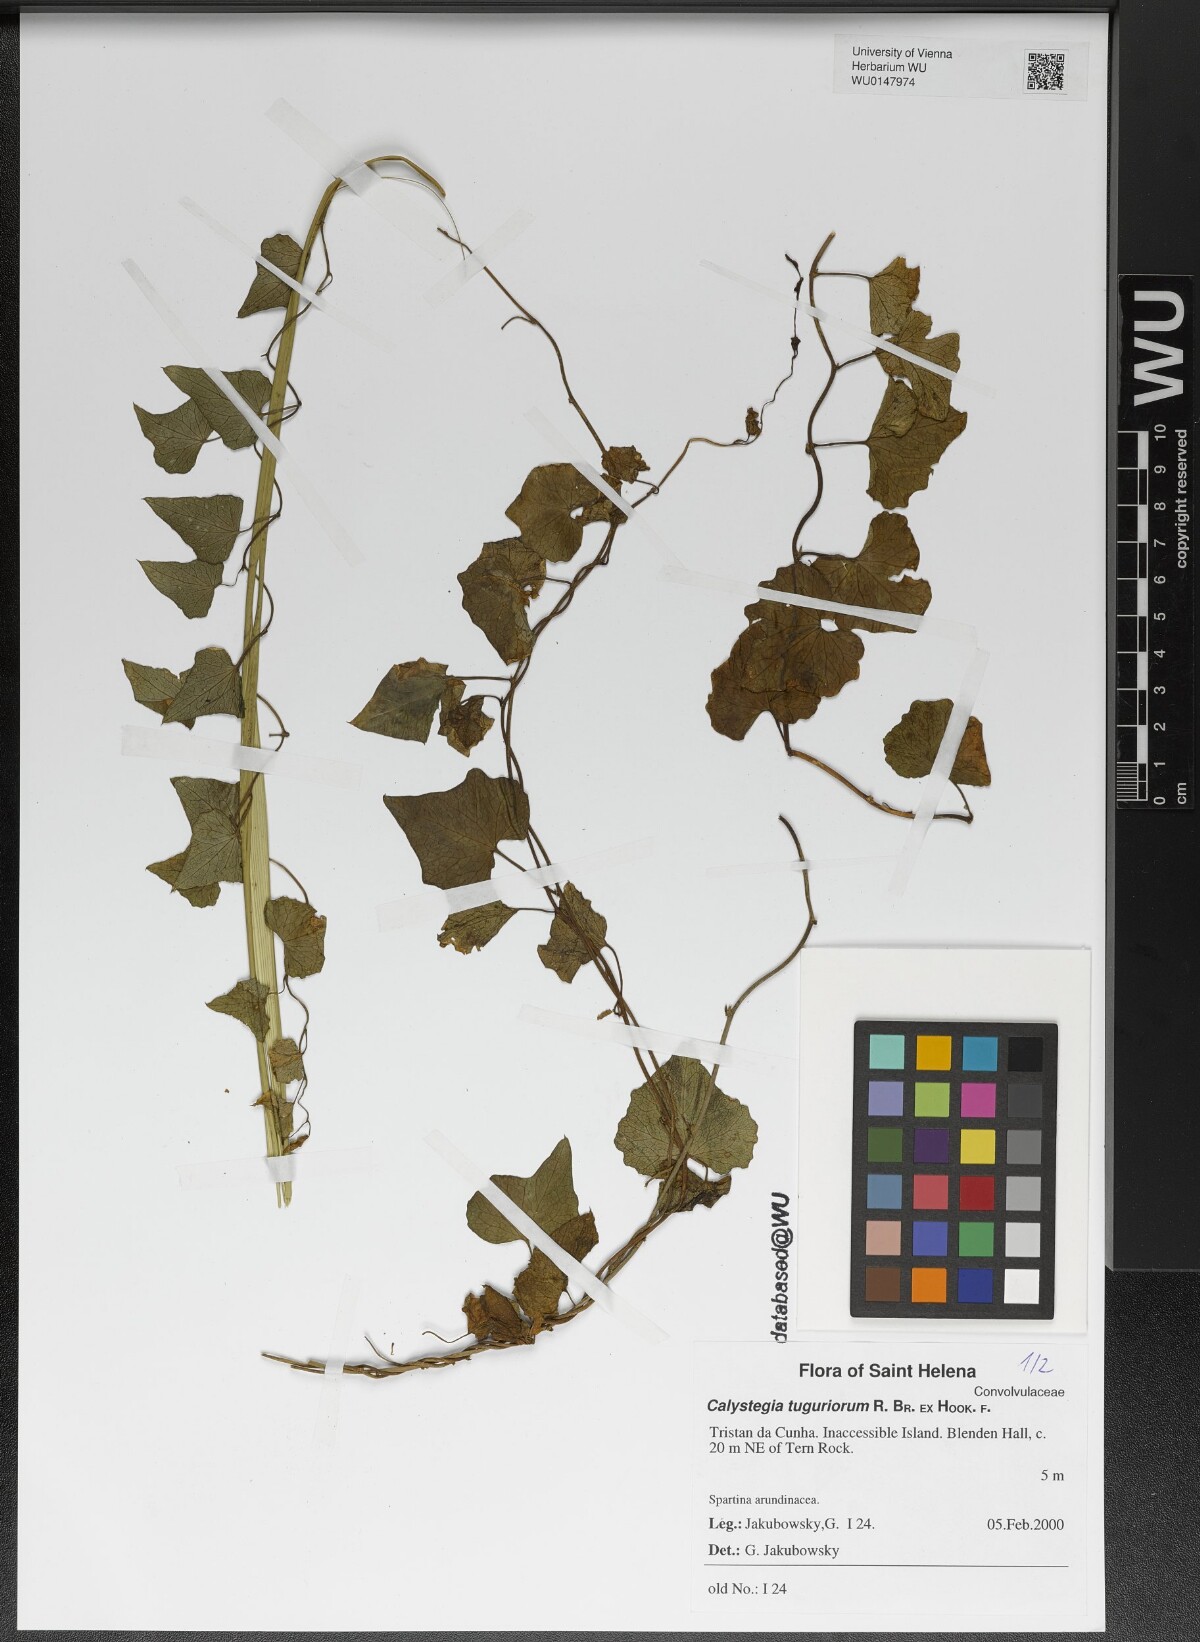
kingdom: Plantae
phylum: Tracheophyta
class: Magnoliopsida
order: Solanales
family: Convolvulaceae
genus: Calystegia
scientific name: Calystegia tuguriorum
